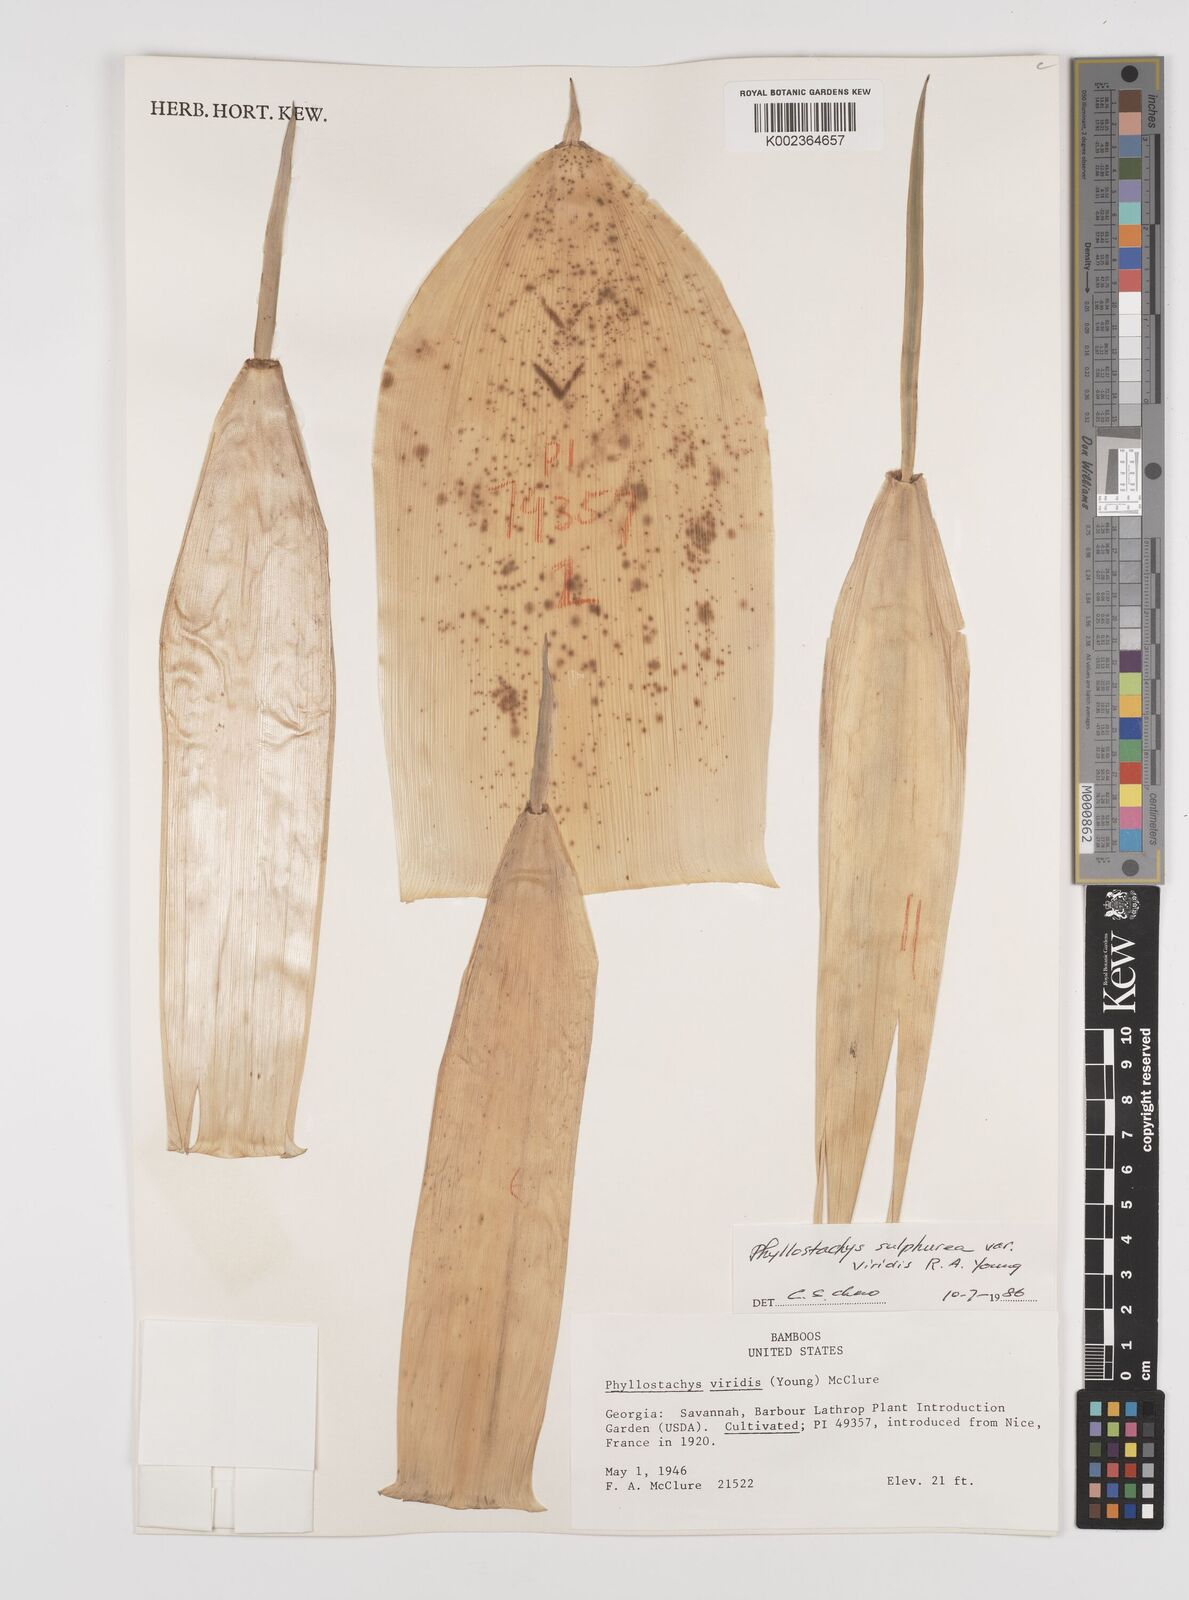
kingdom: Plantae
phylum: Tracheophyta
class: Liliopsida
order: Poales
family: Poaceae
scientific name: Poaceae
